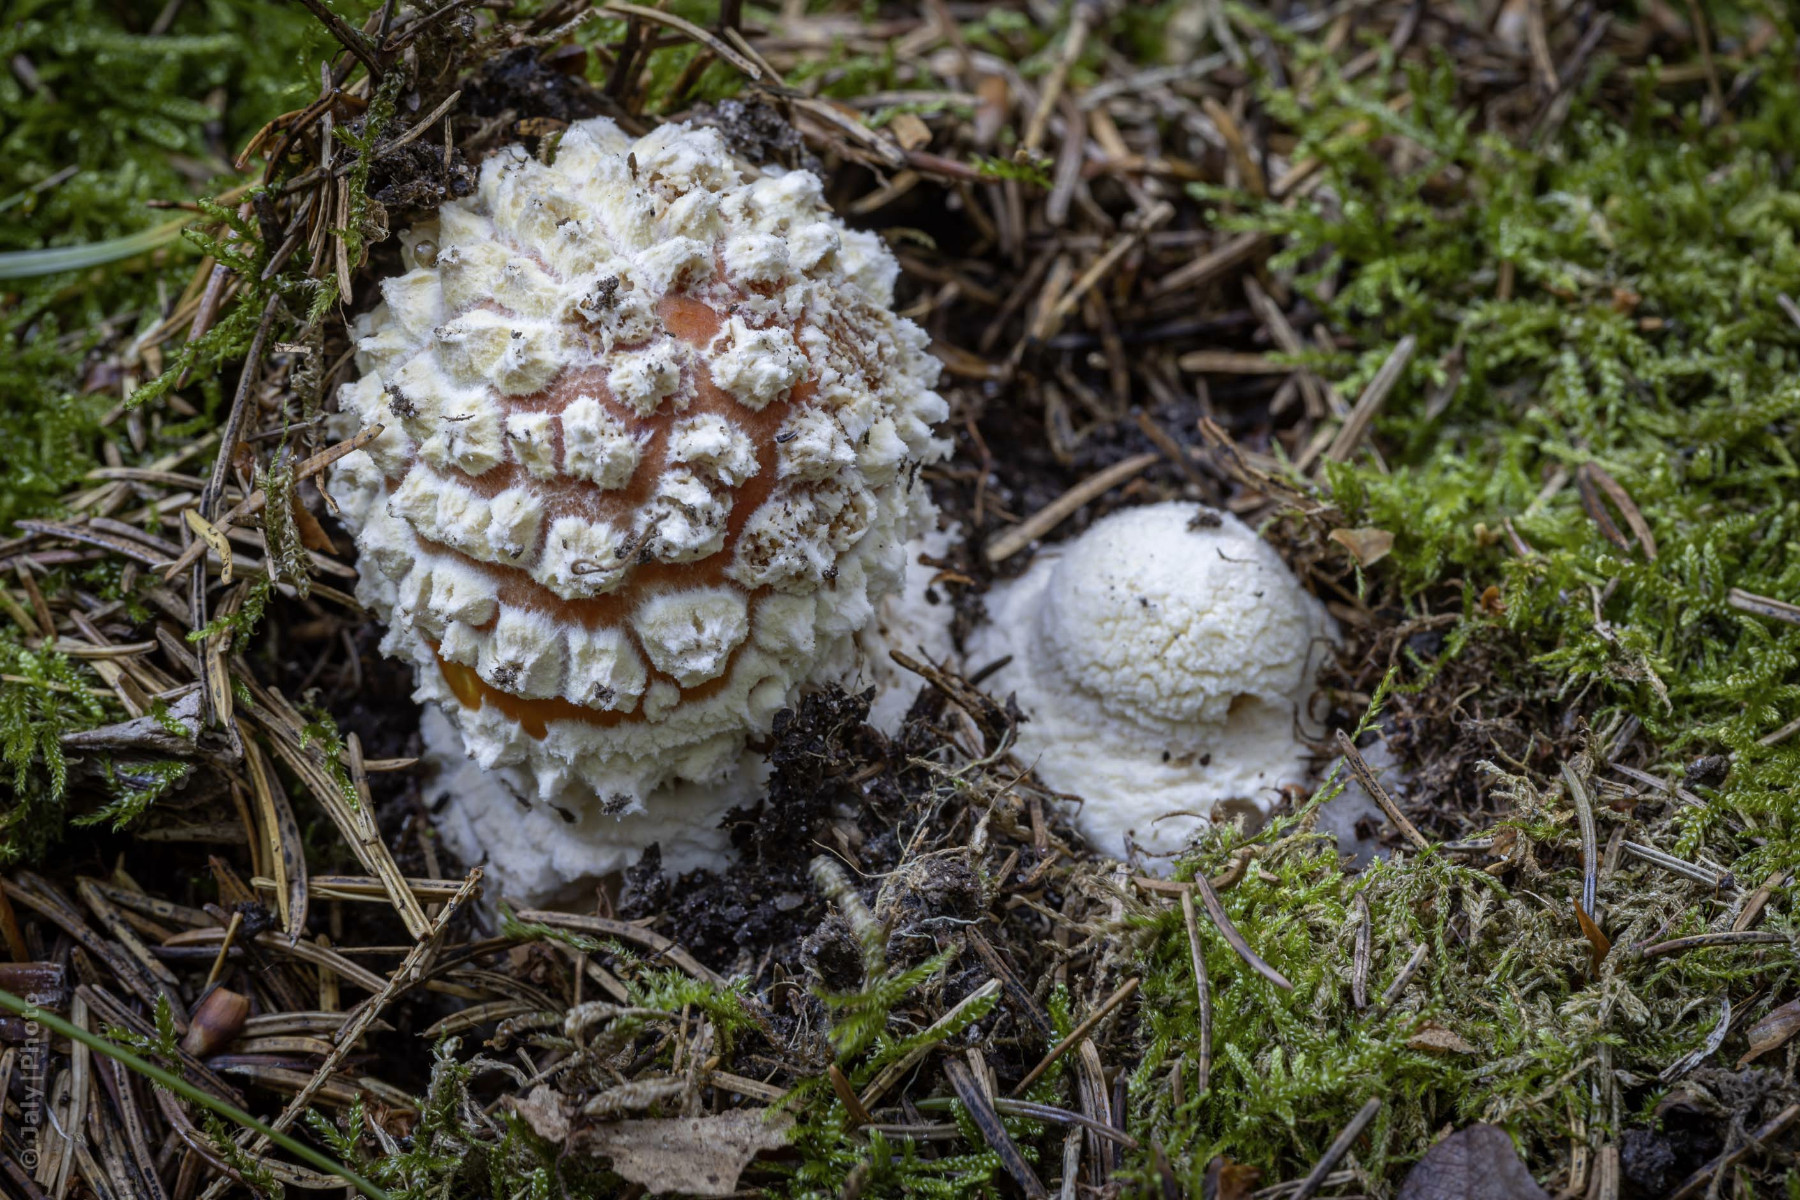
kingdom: Fungi
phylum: Basidiomycota
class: Agaricomycetes
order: Agaricales
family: Amanitaceae
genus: Amanita
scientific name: Amanita muscaria
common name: rød fluesvamp
